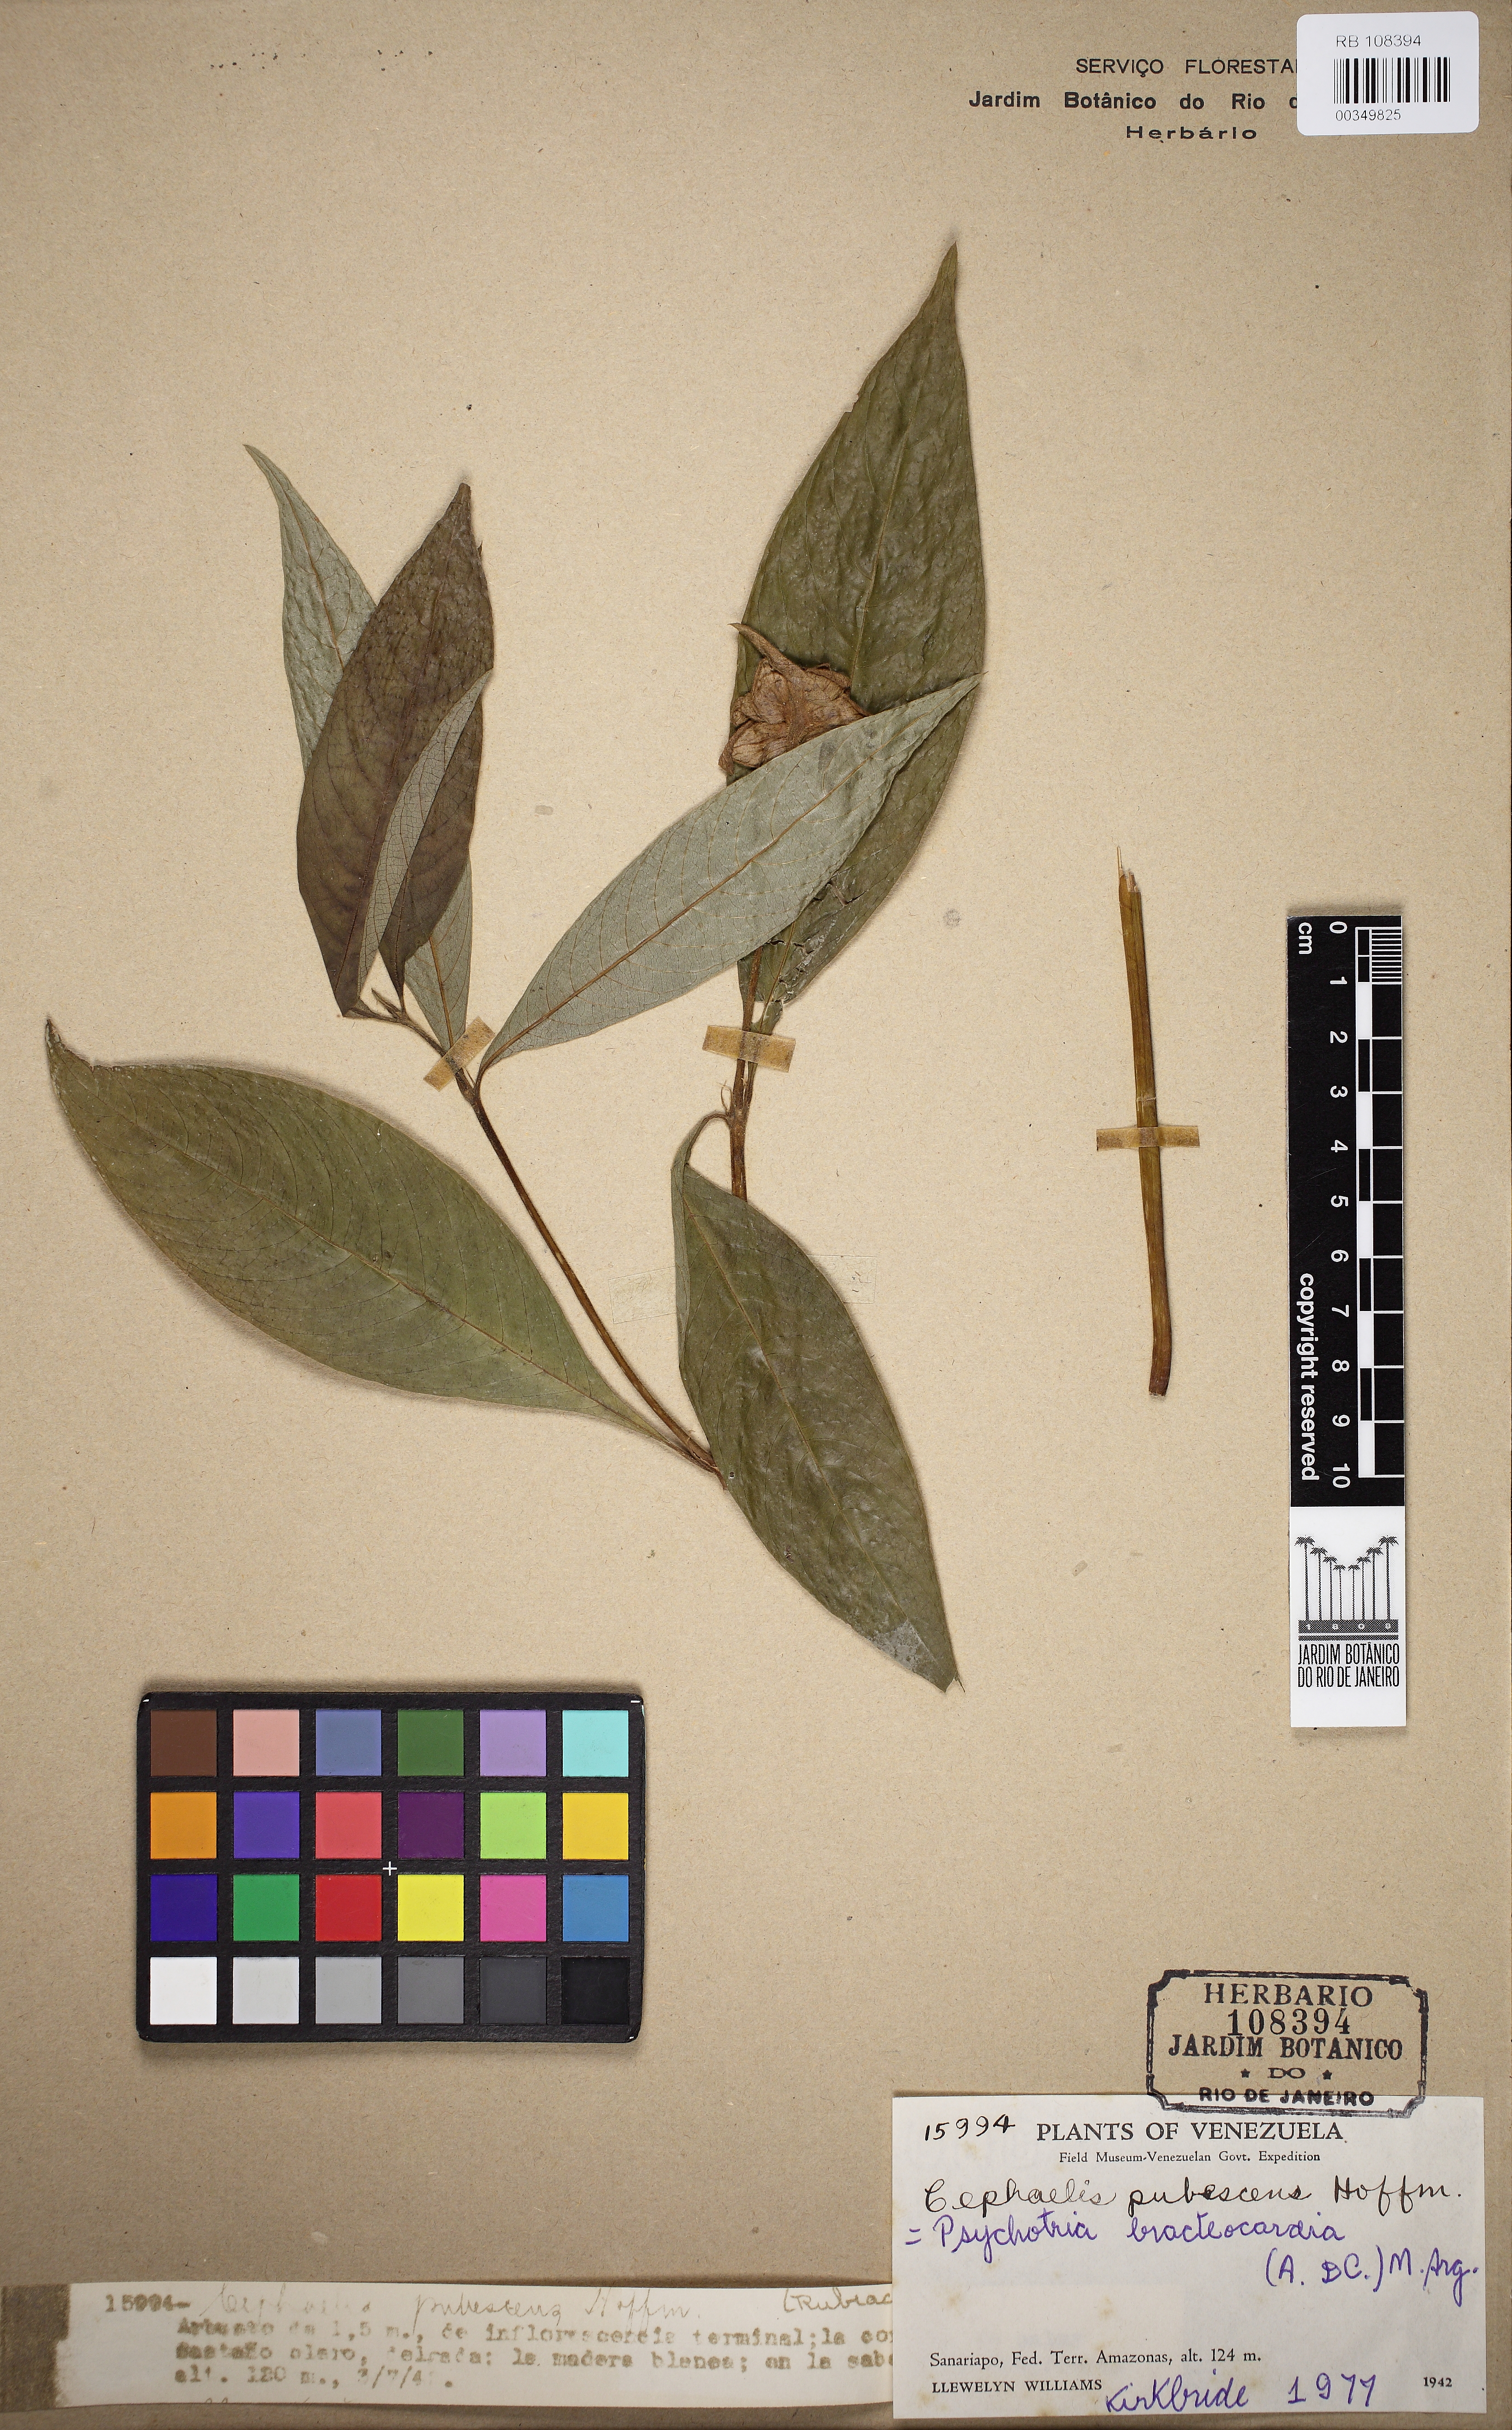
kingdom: Plantae
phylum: Tracheophyta
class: Magnoliopsida
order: Gentianales
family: Rubiaceae
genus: Palicourea
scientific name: Palicourea bracteocardia
